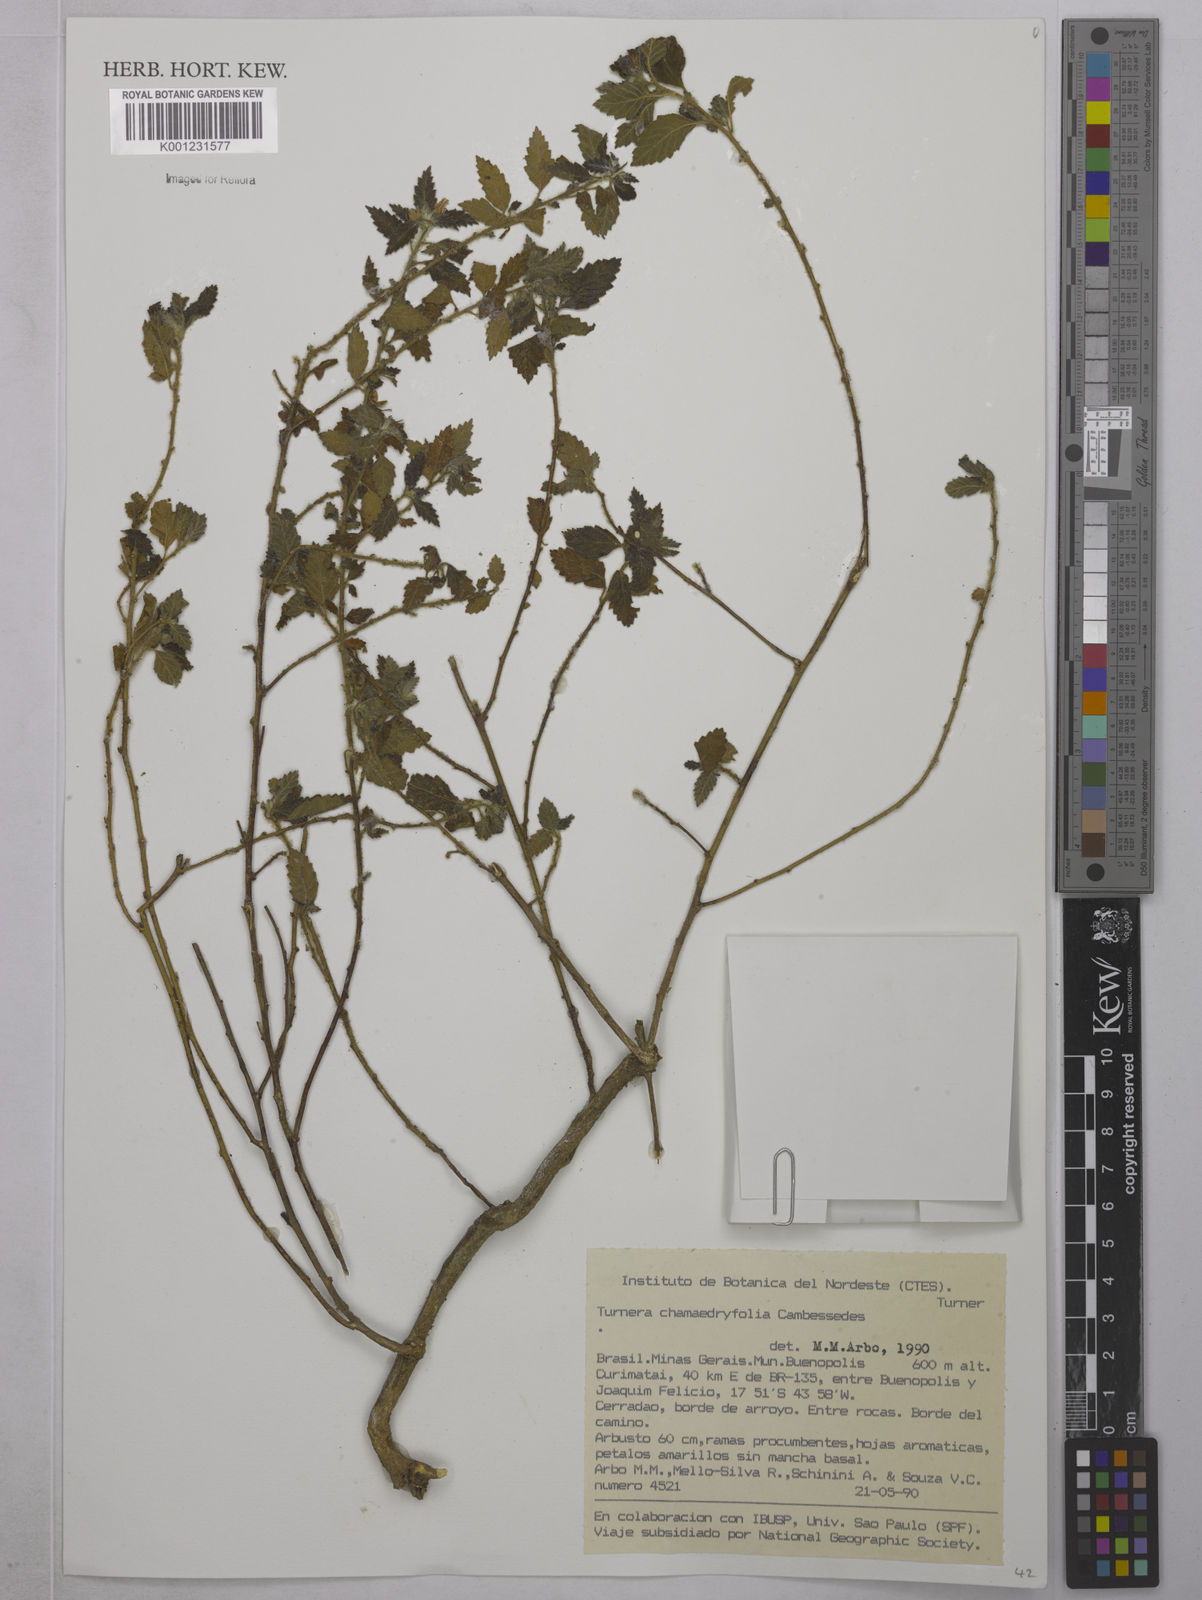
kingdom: Plantae
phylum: Tracheophyta
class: Magnoliopsida
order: Malpighiales
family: Turneraceae
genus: Turnera
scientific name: Turnera chamaedrifolia
